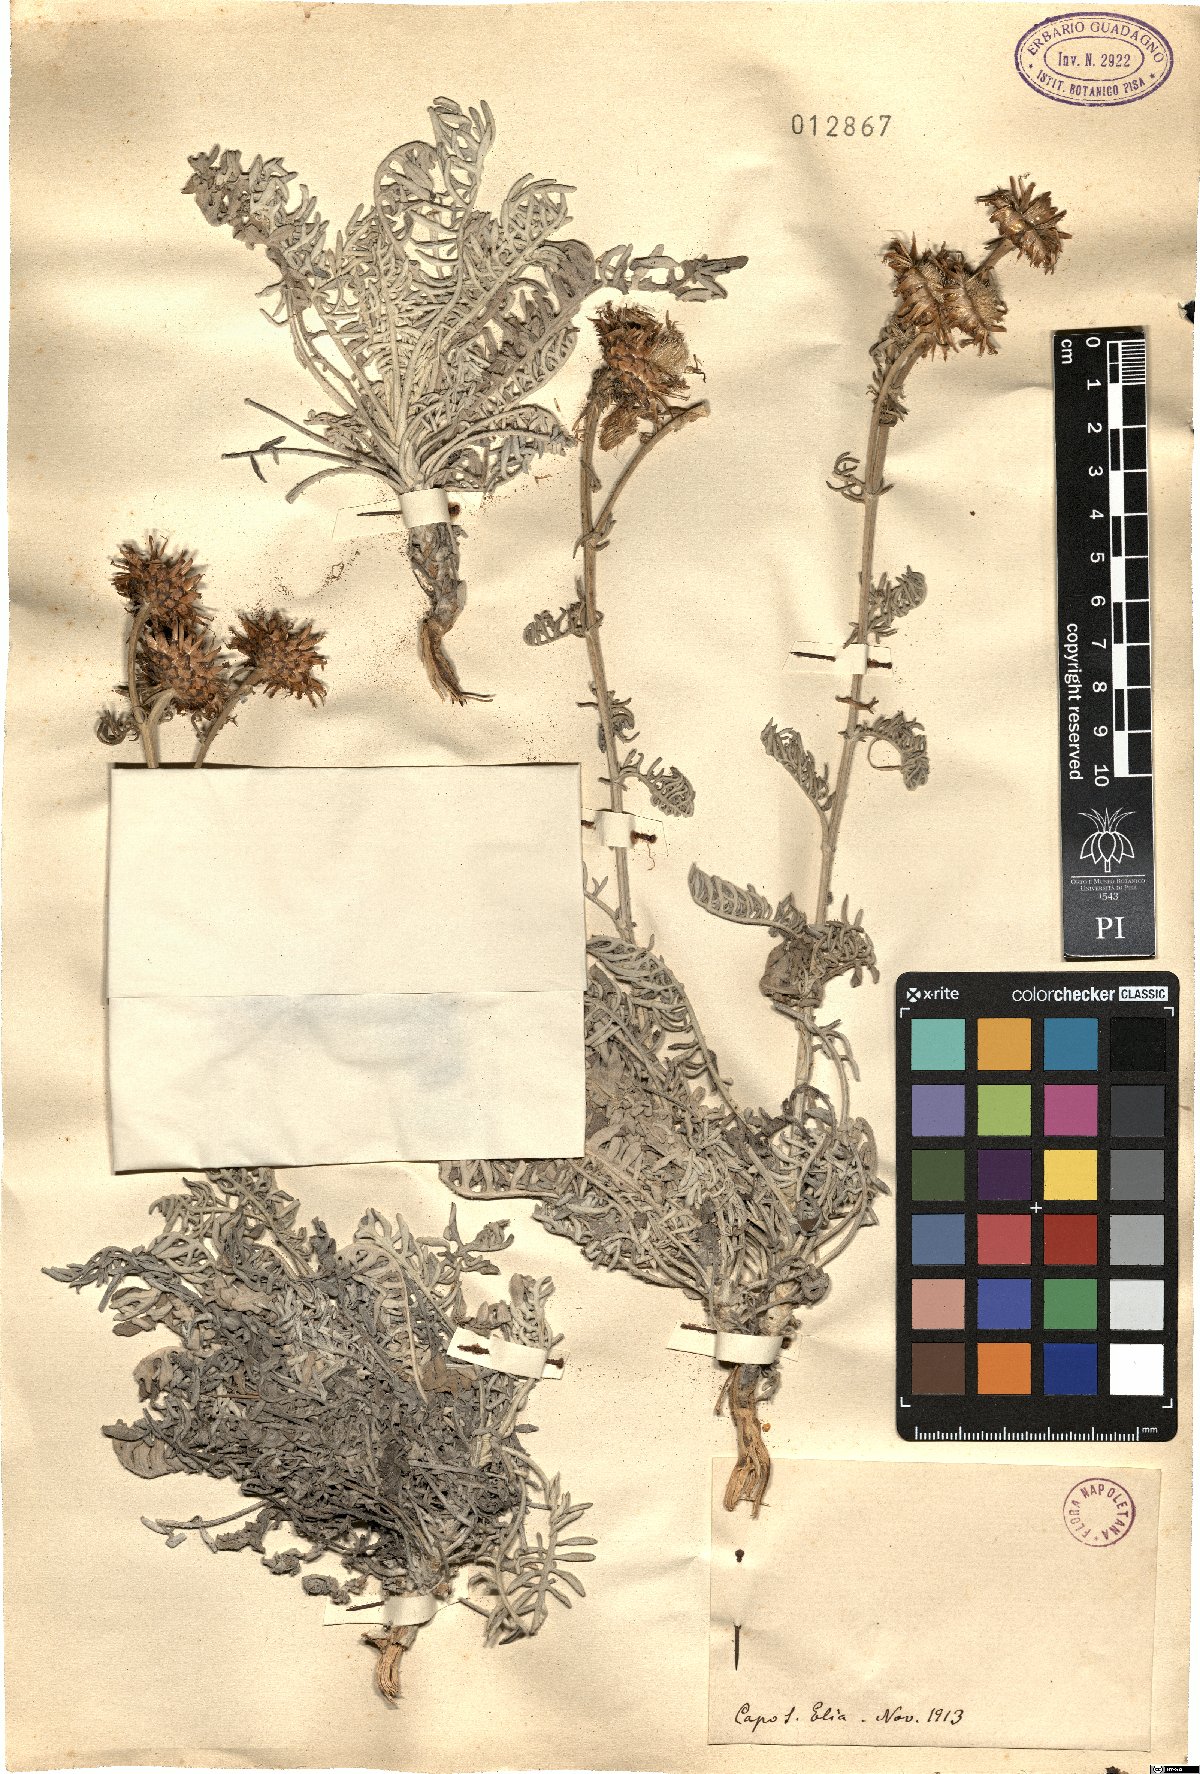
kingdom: Plantae
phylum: Tracheophyta
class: Magnoliopsida
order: Asterales
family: Asteraceae
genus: Centaurea
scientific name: Centaurea
